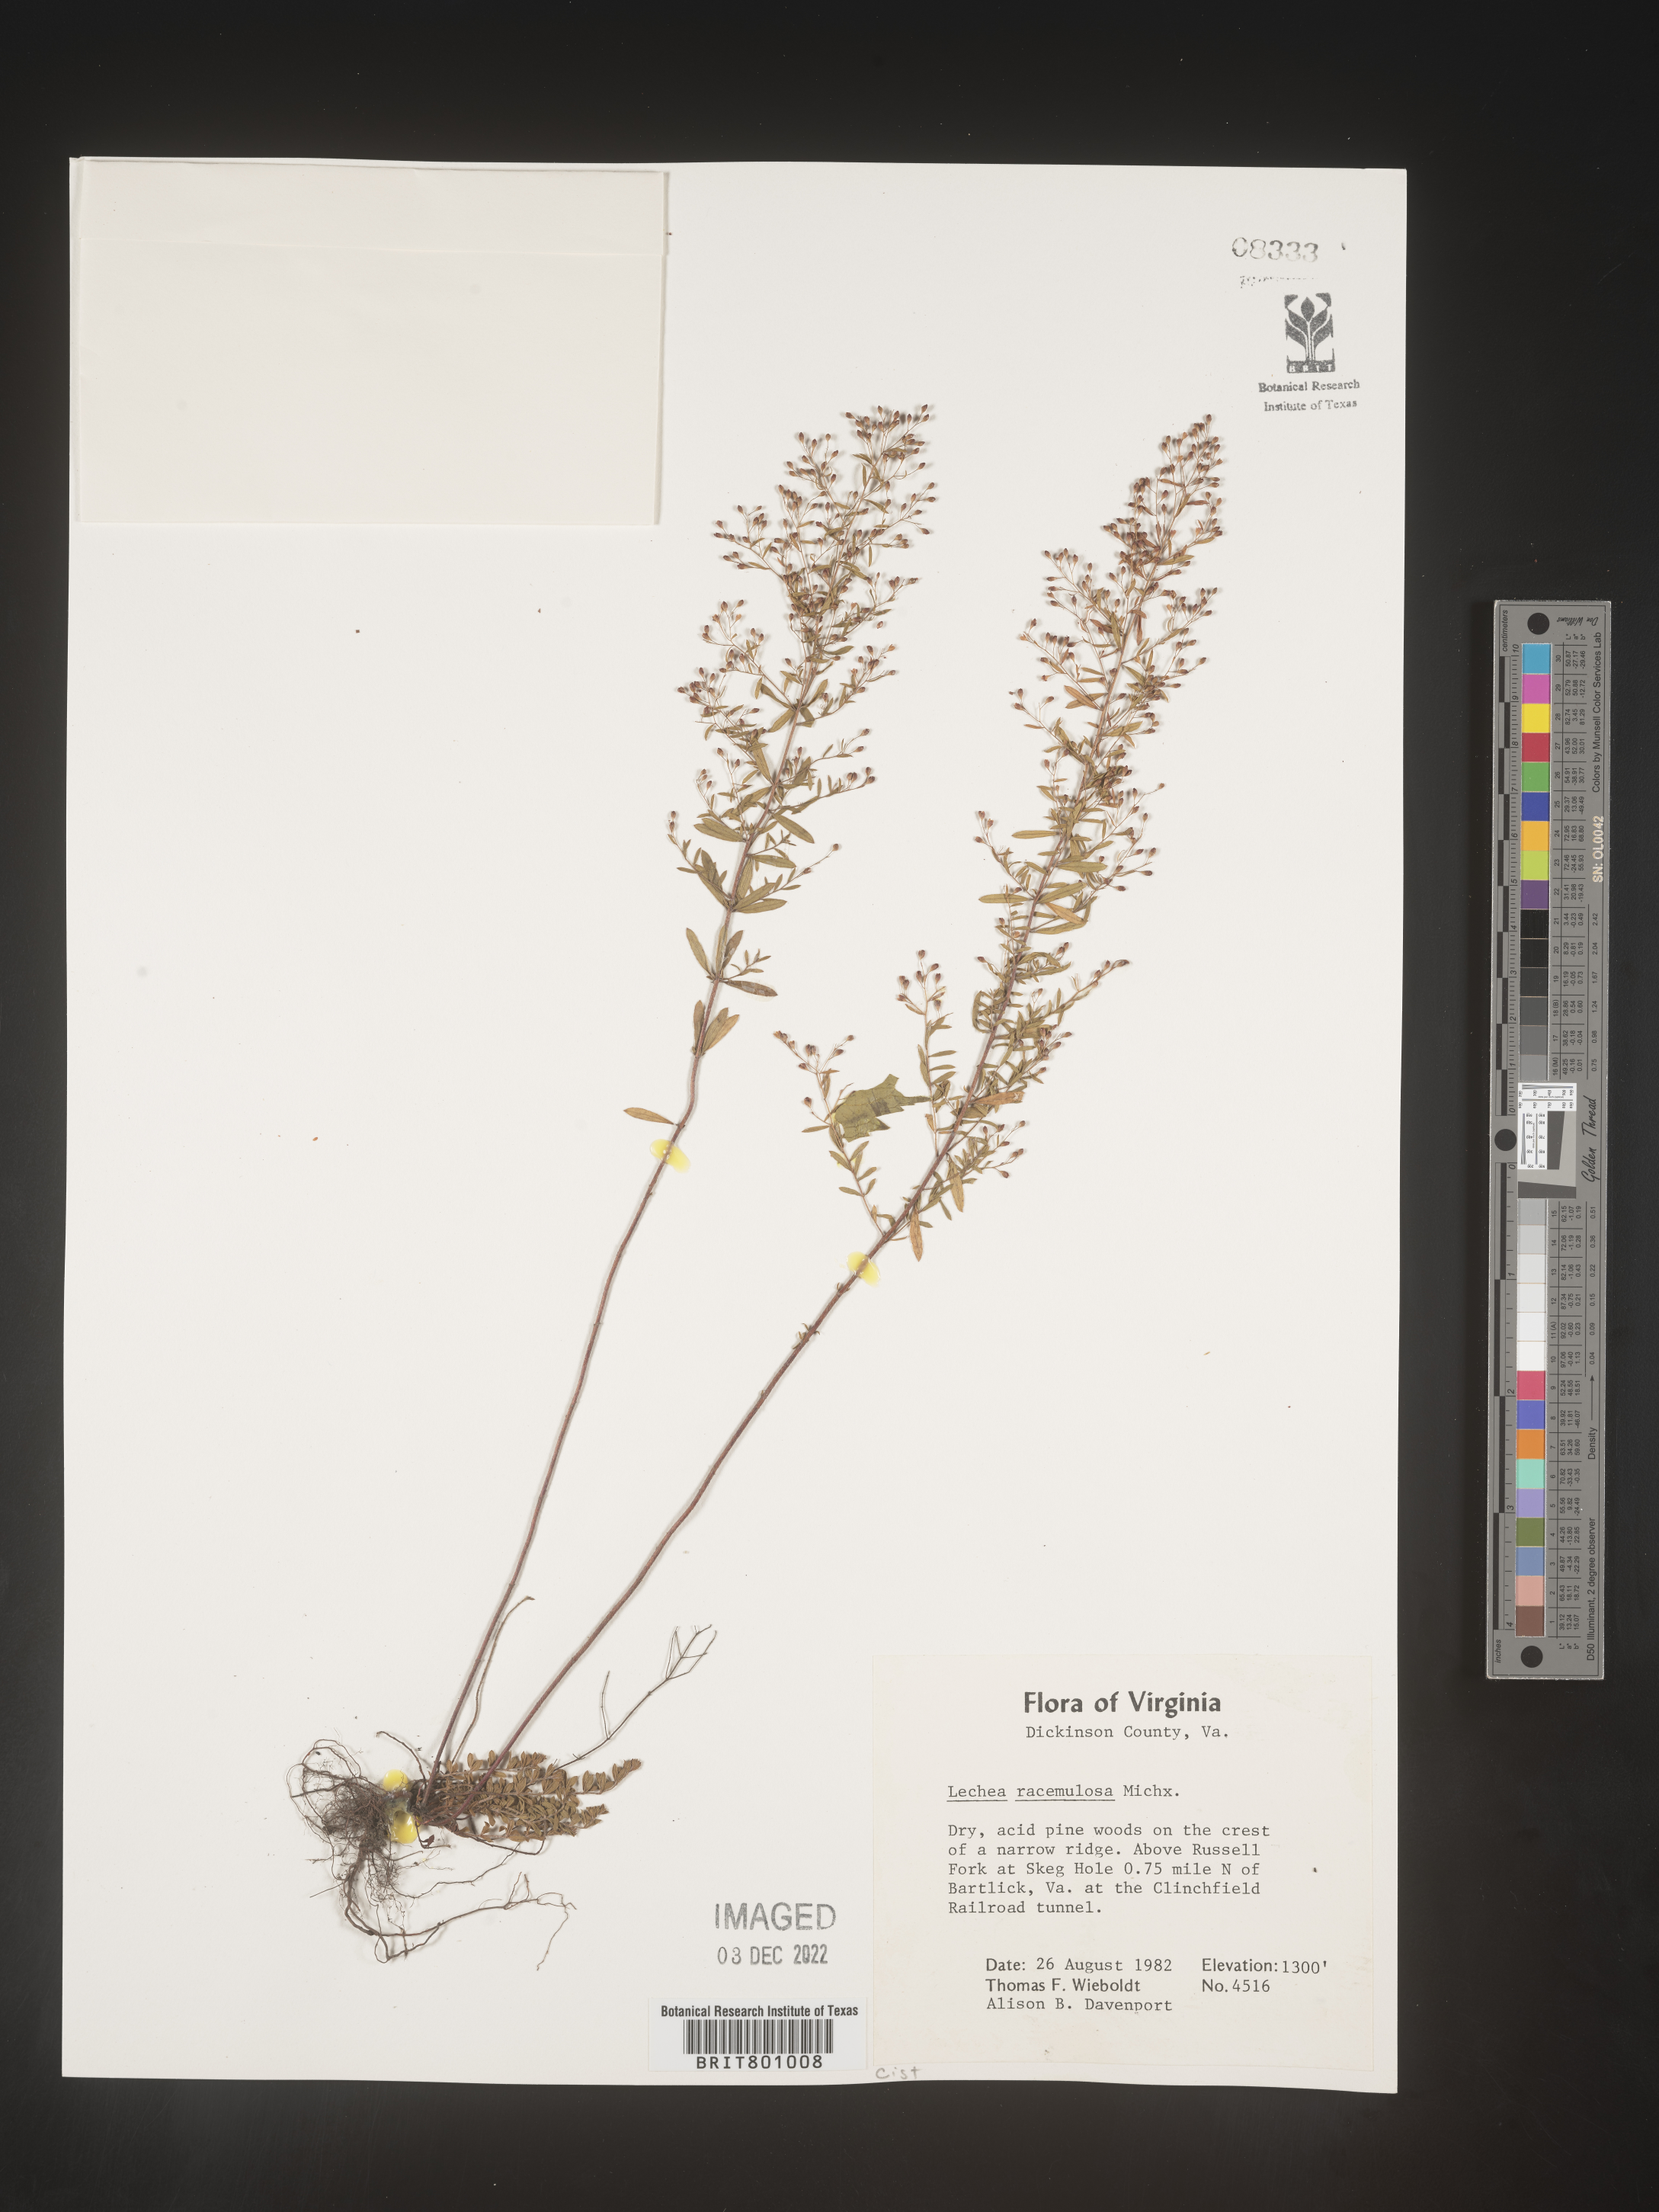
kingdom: Plantae
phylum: Tracheophyta
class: Magnoliopsida
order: Malvales
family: Cistaceae
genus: Lechea
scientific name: Lechea racemulosa
